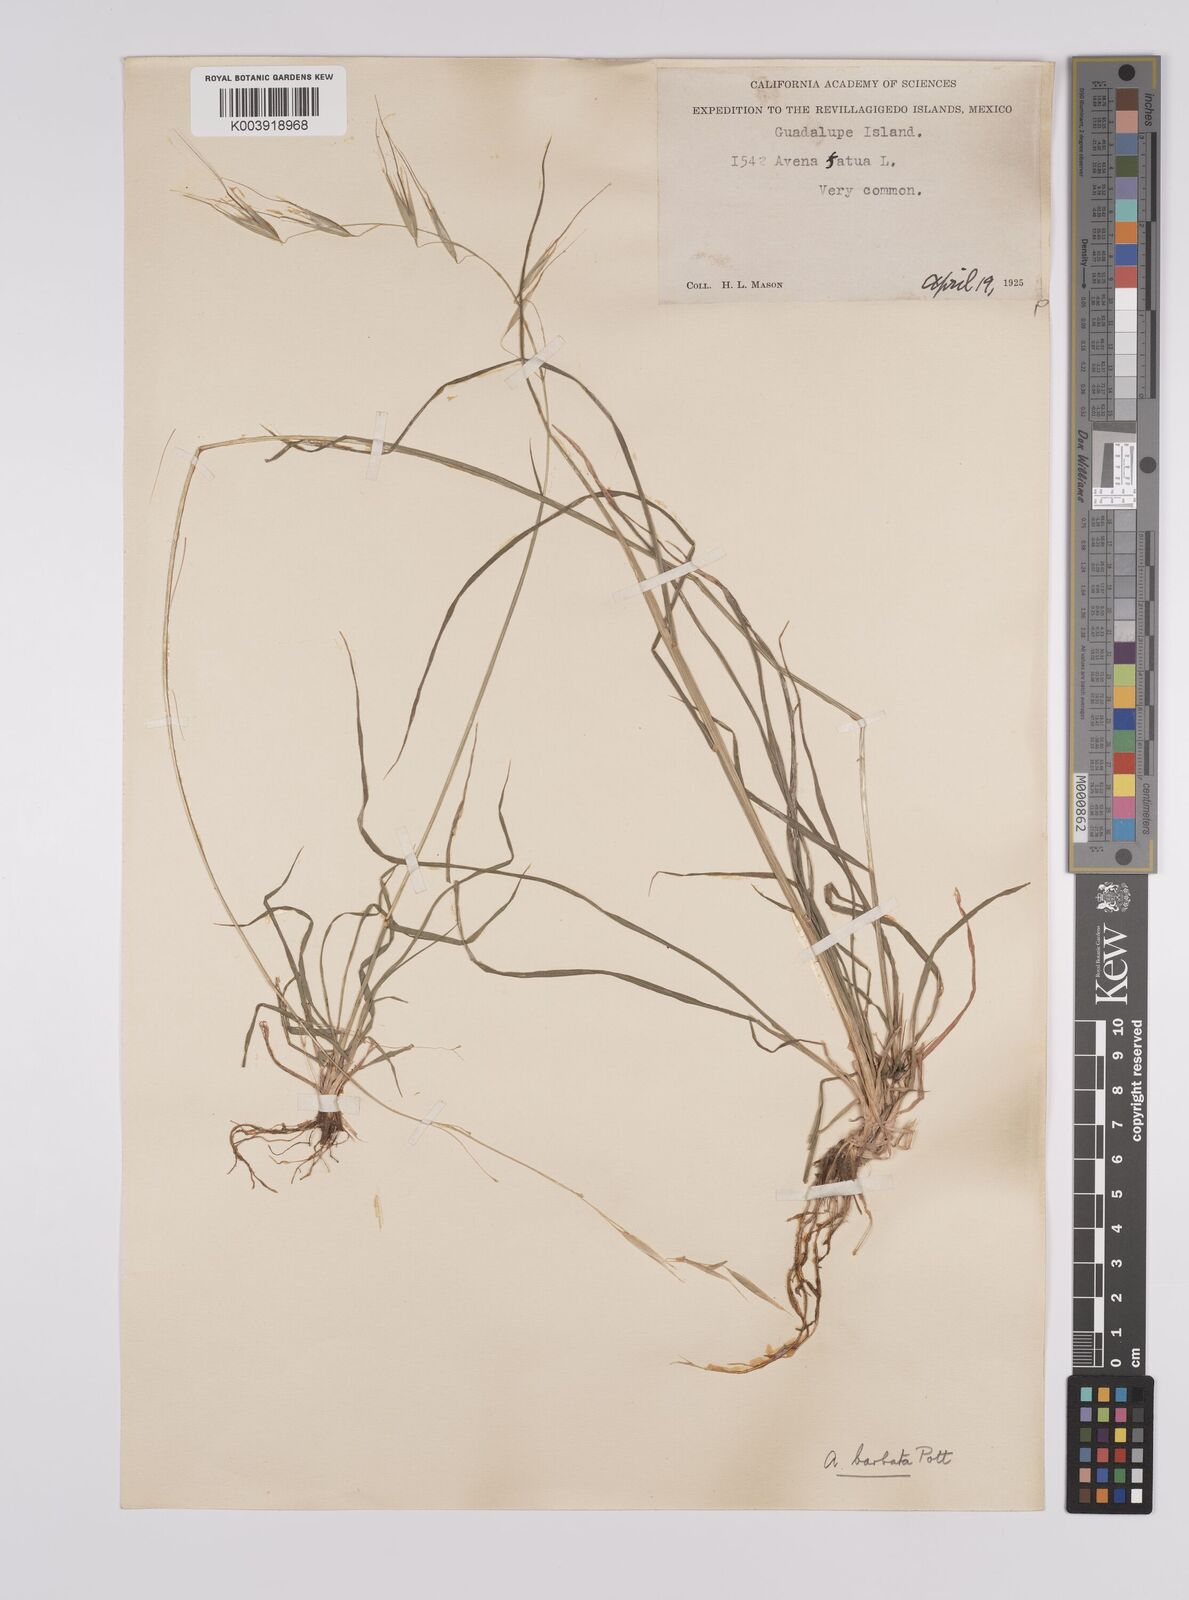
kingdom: Plantae
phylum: Tracheophyta
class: Liliopsida
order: Poales
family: Poaceae
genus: Avena
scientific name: Avena
